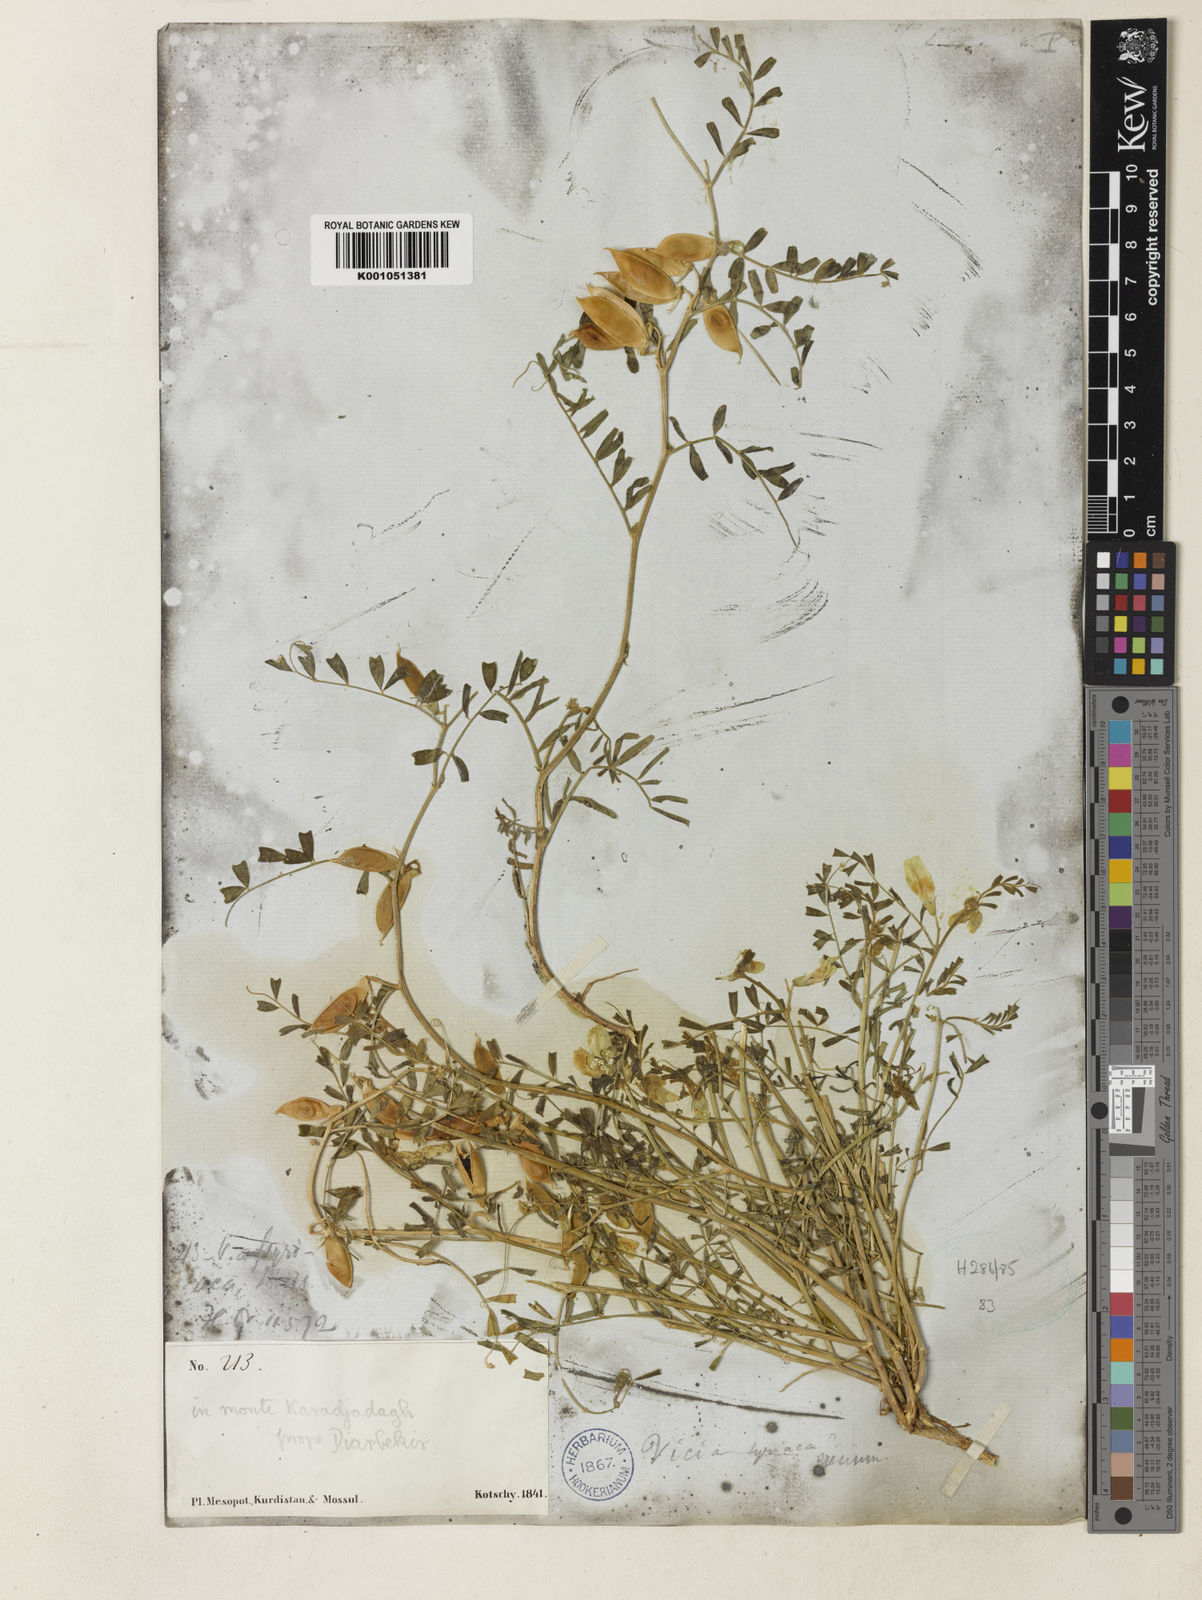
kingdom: Plantae
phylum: Tracheophyta
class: Magnoliopsida
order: Fabales
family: Fabaceae
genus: Vicia
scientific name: Vicia assyriaca
